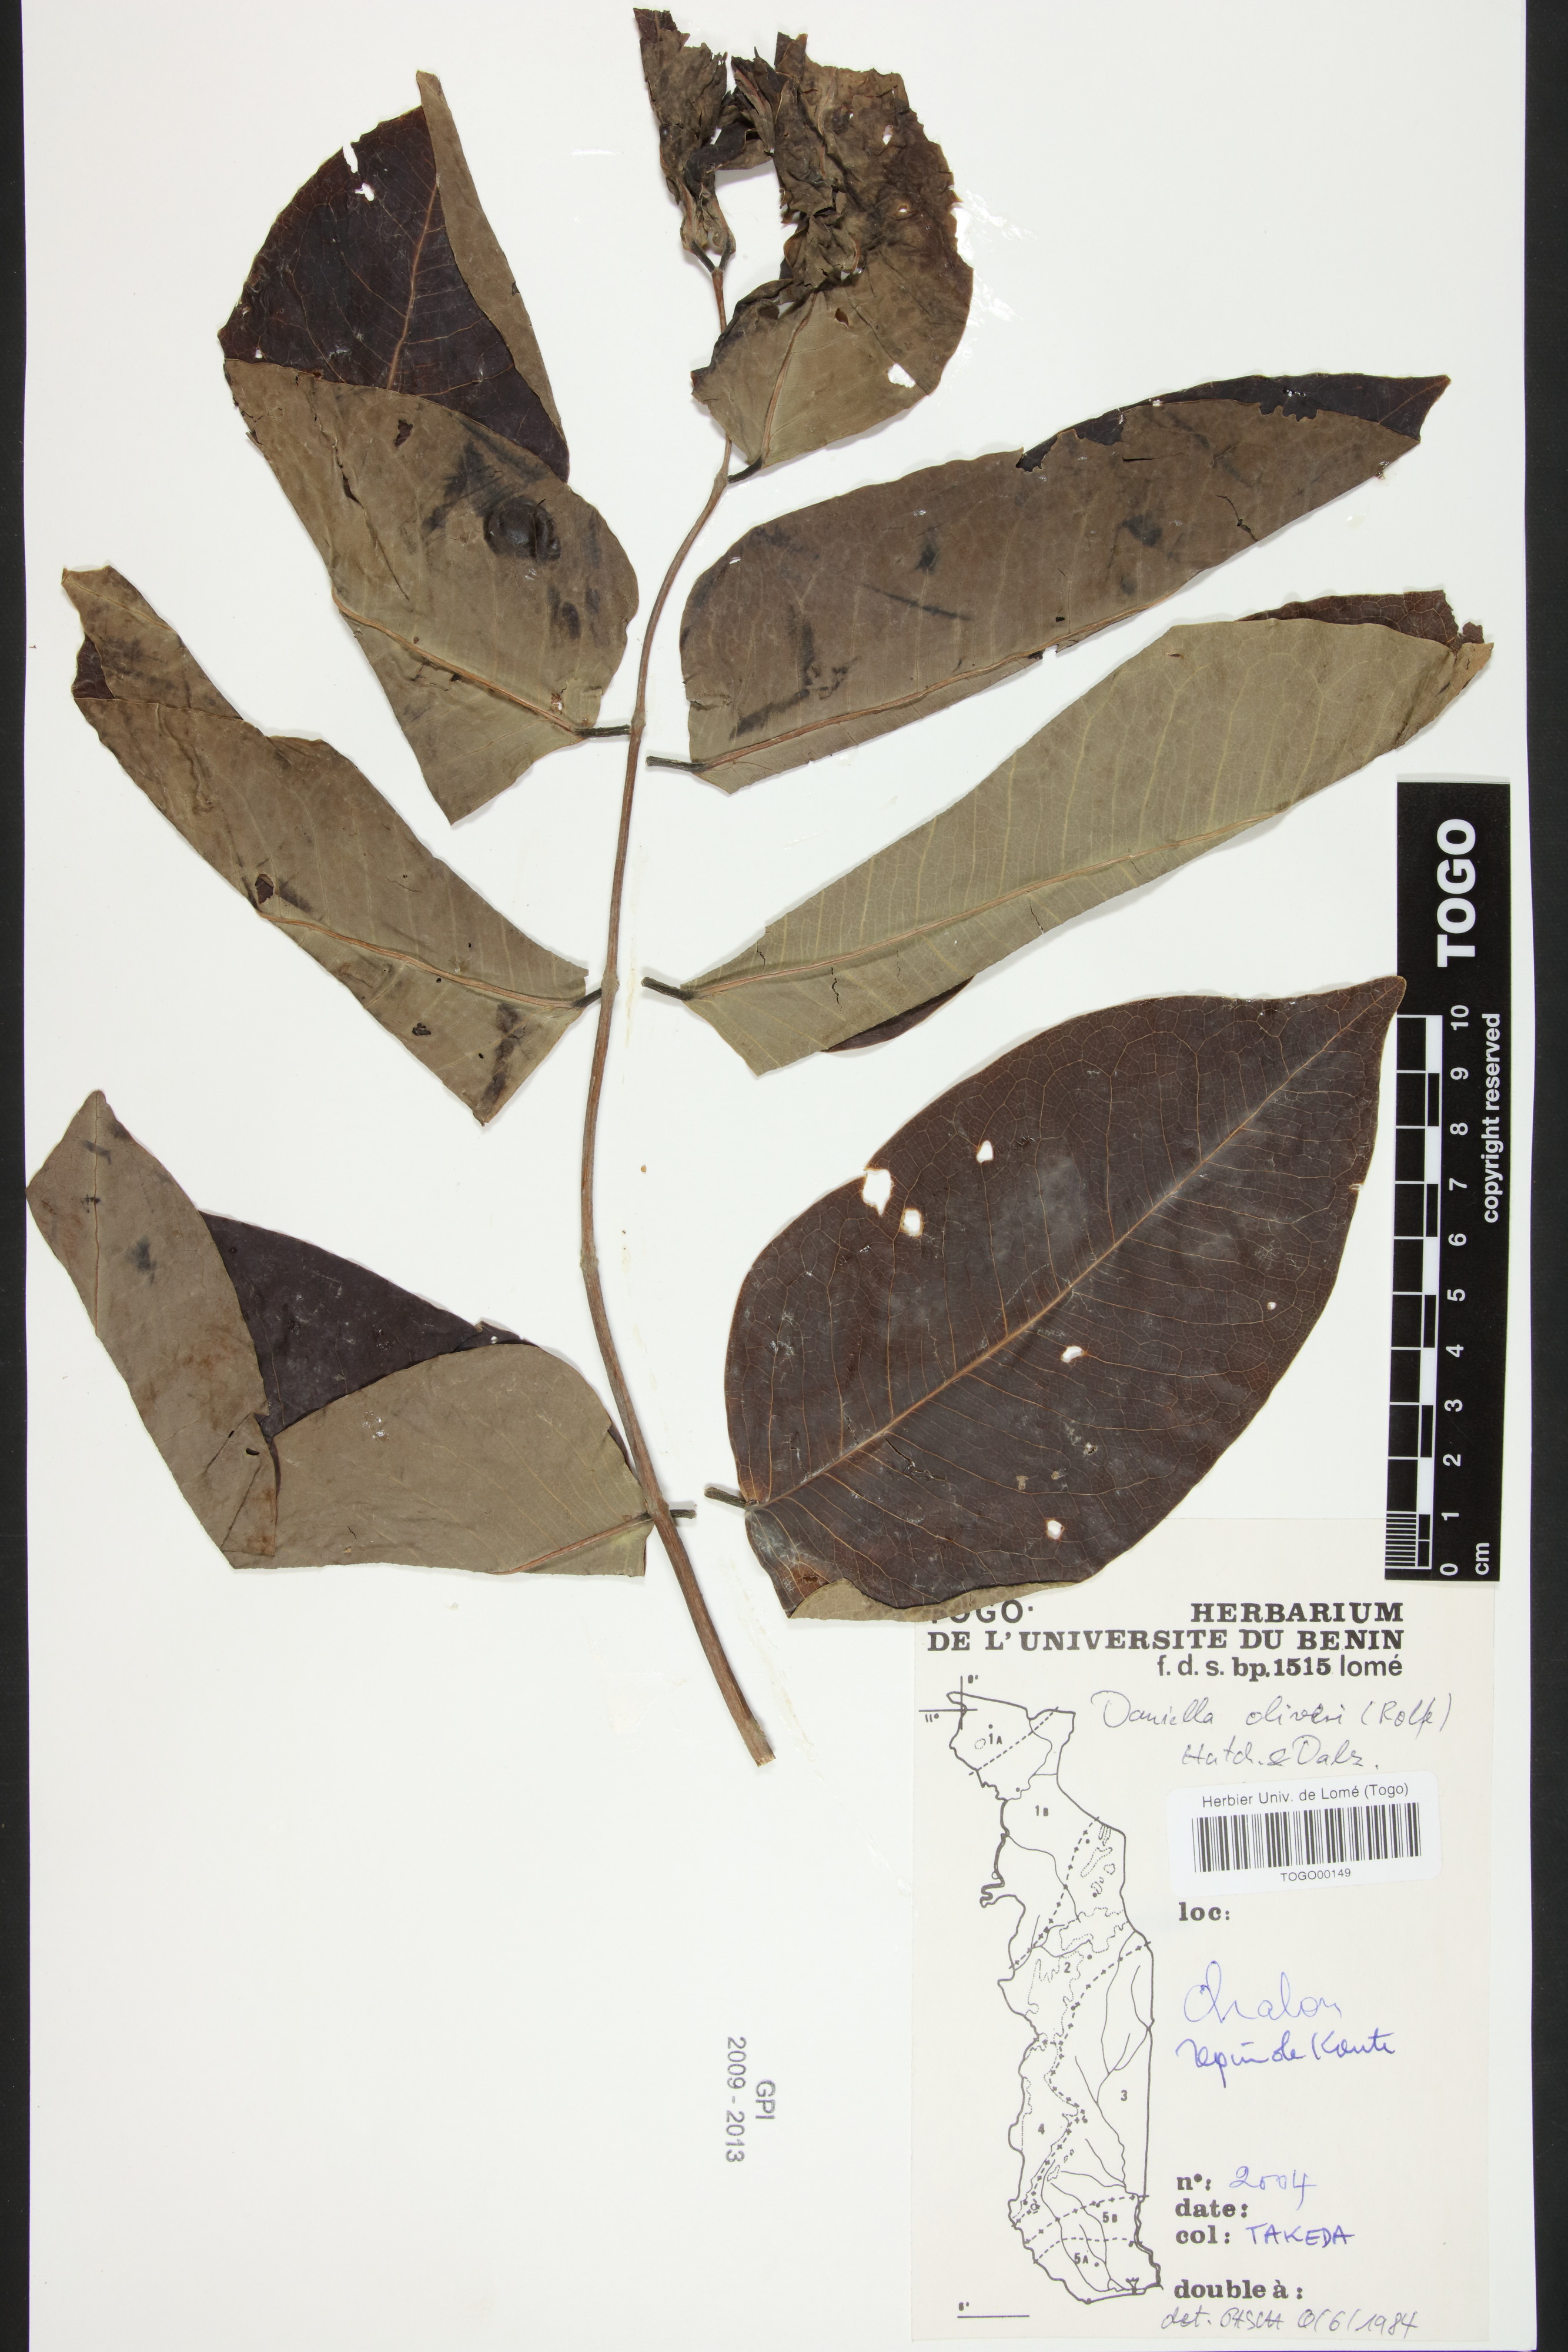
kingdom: Plantae
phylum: Tracheophyta
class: Magnoliopsida
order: Fabales
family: Fabaceae
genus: Daniellia
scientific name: Daniellia oliveri
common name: African copaiba balsamtree
